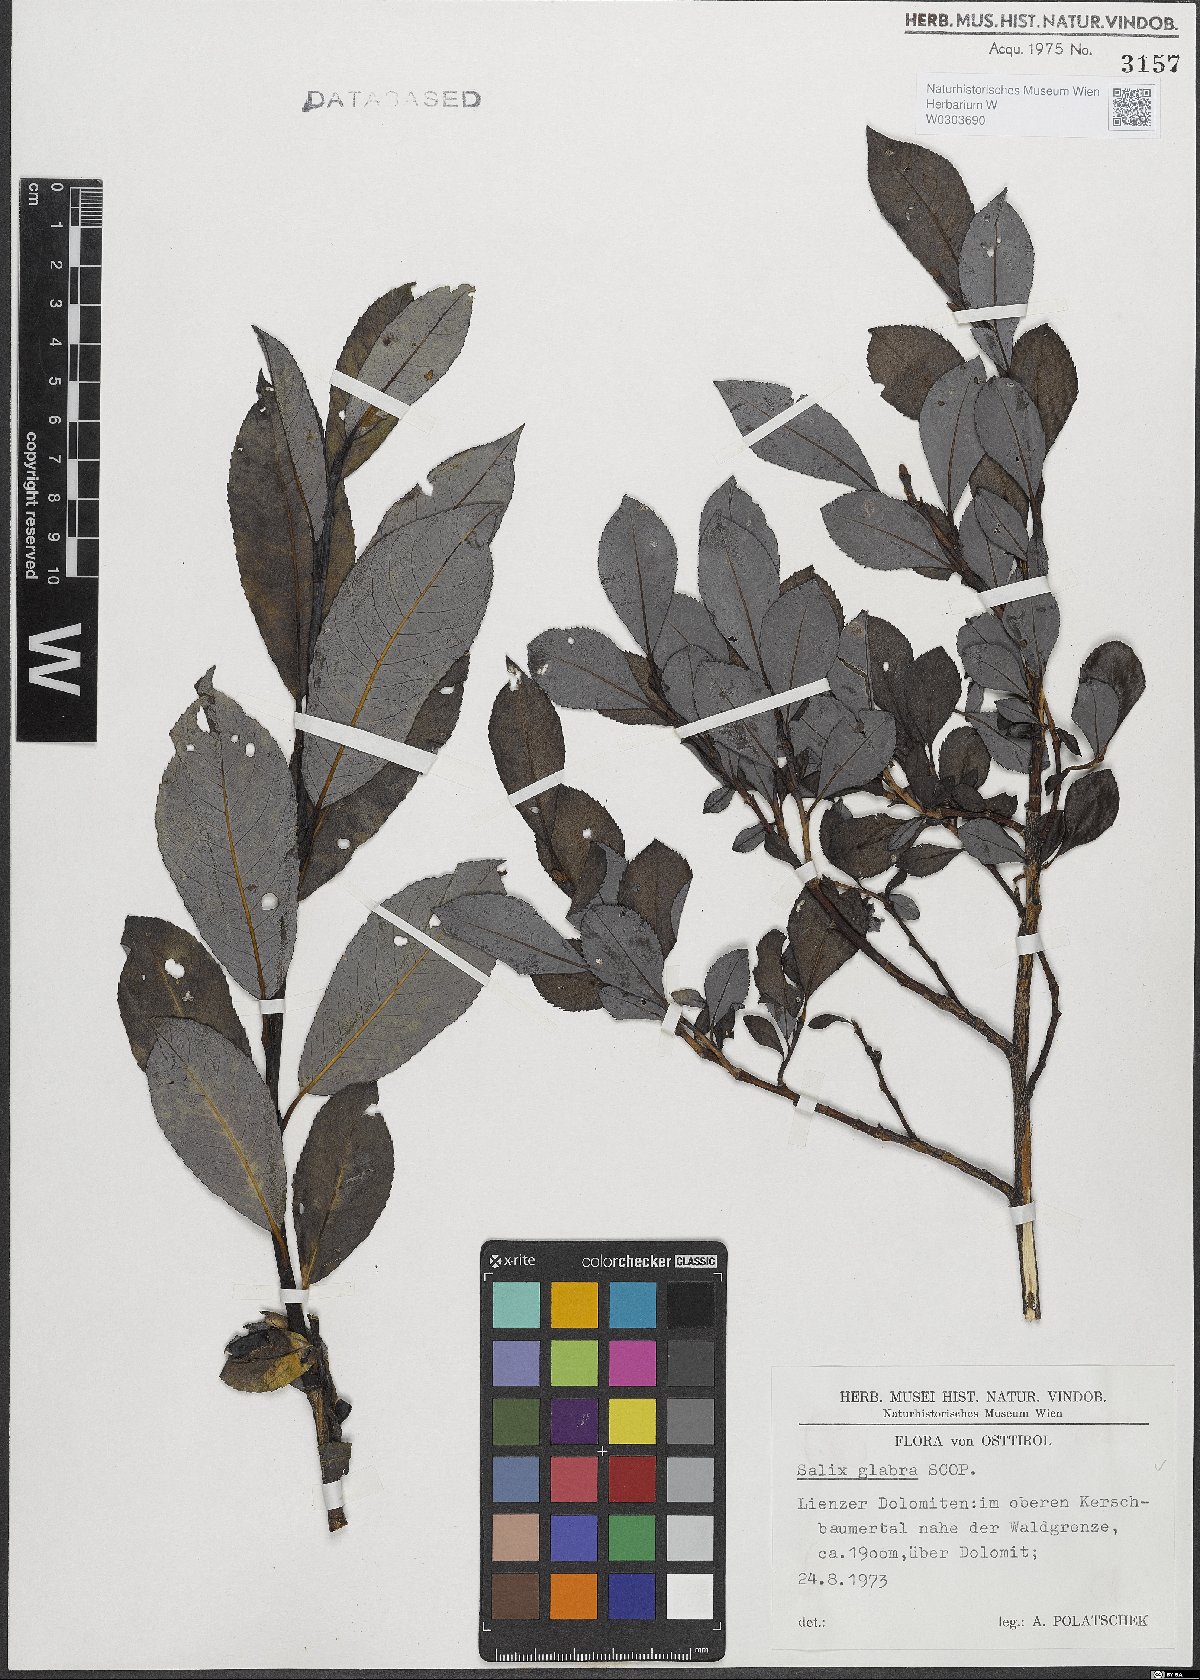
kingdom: Plantae
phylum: Tracheophyta
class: Magnoliopsida
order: Malpighiales
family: Salicaceae
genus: Salix
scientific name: Salix glabra
